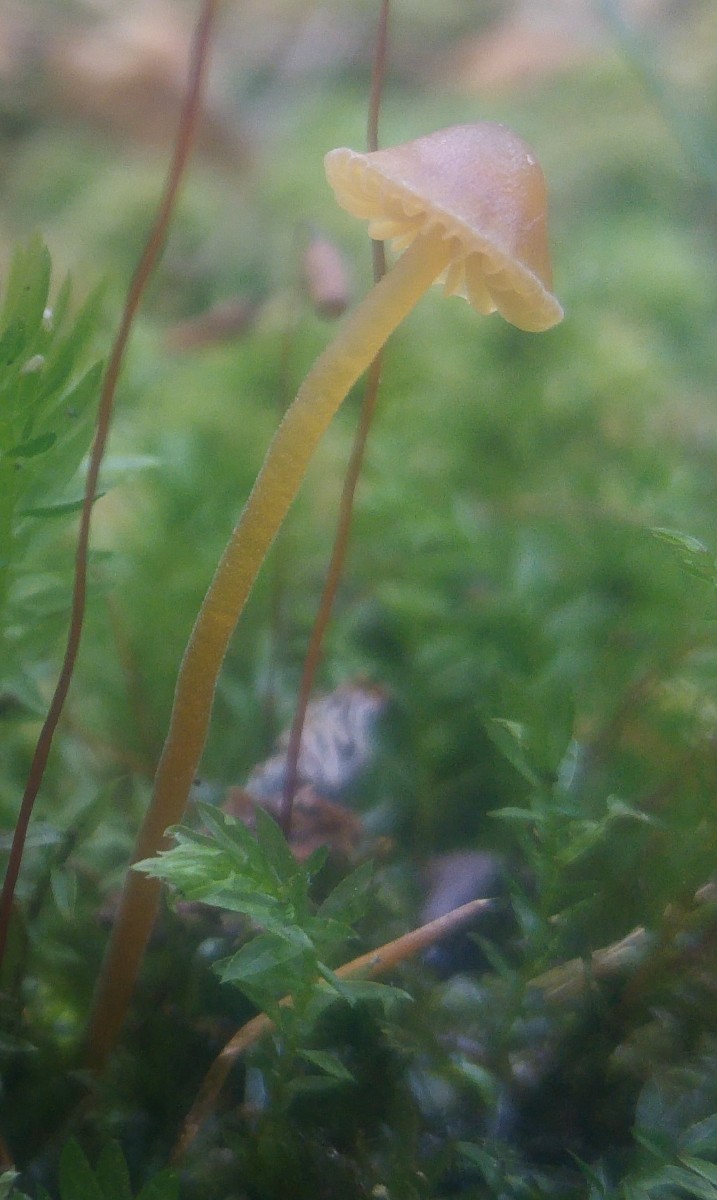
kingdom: Fungi
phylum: Basidiomycota
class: Agaricomycetes
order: Agaricales
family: Hymenogastraceae
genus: Galerina
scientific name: Galerina atkinsoniana
